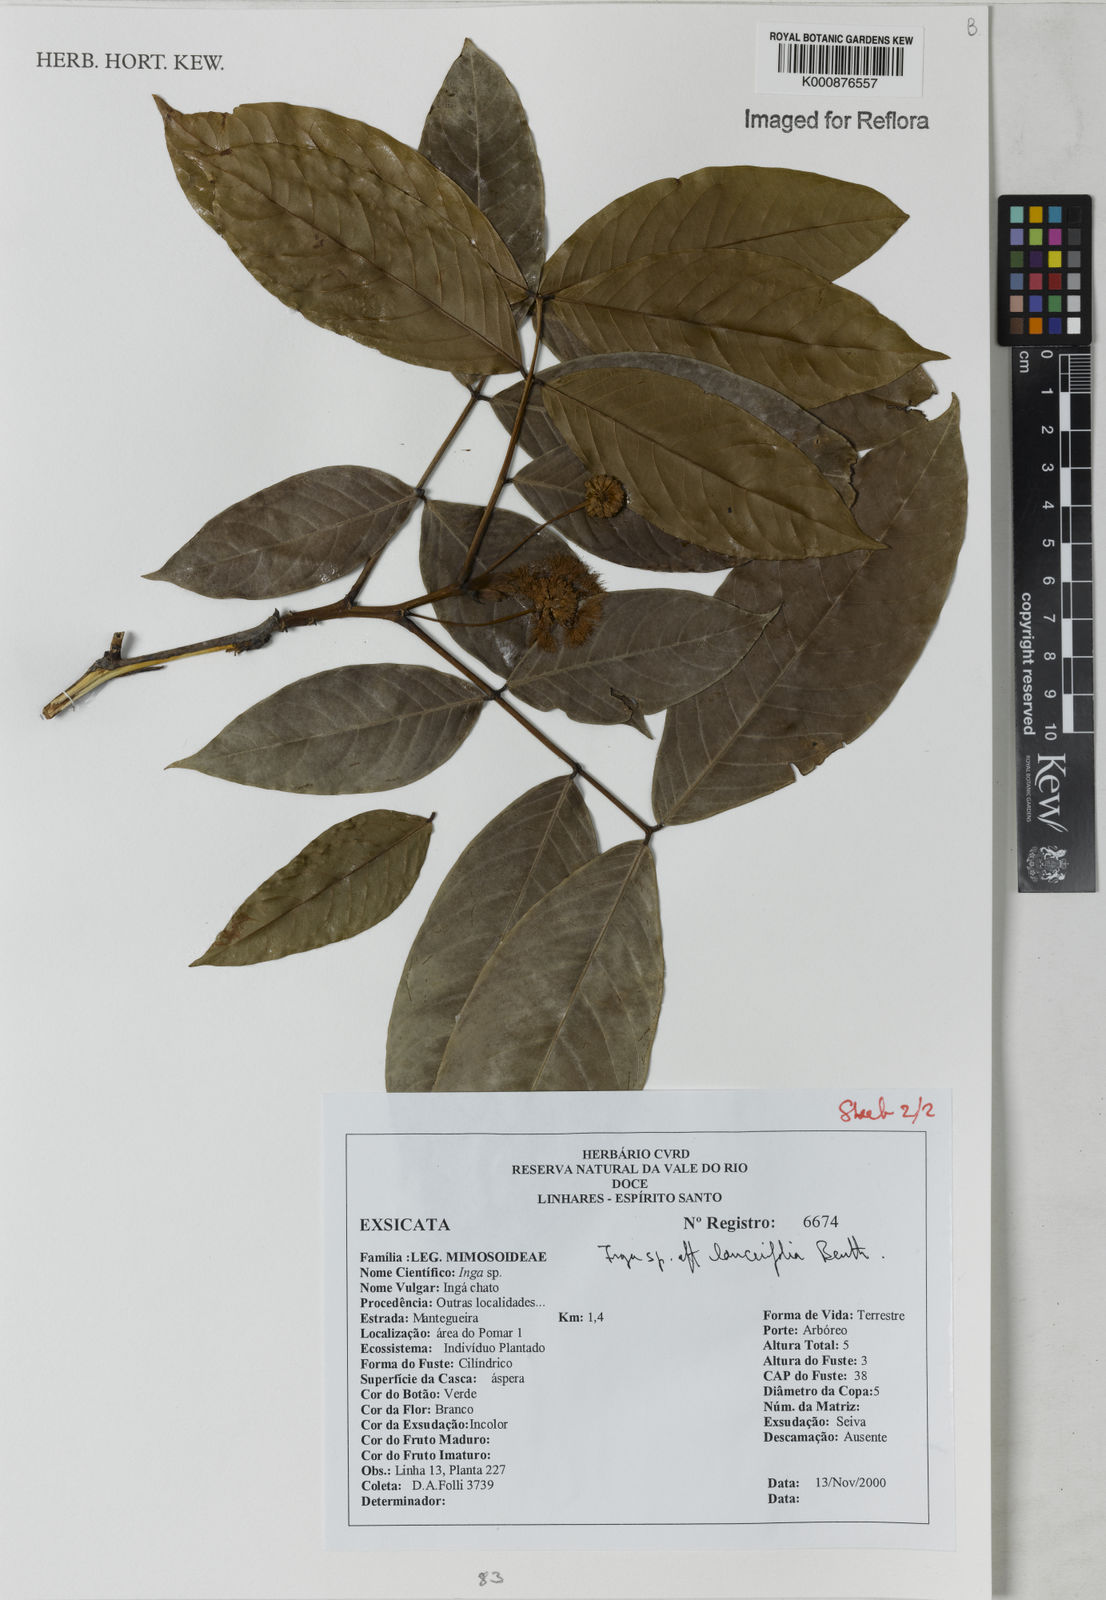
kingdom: Plantae
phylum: Tracheophyta
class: Magnoliopsida
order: Fabales
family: Fabaceae
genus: Inga
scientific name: Inga lanceifolia
